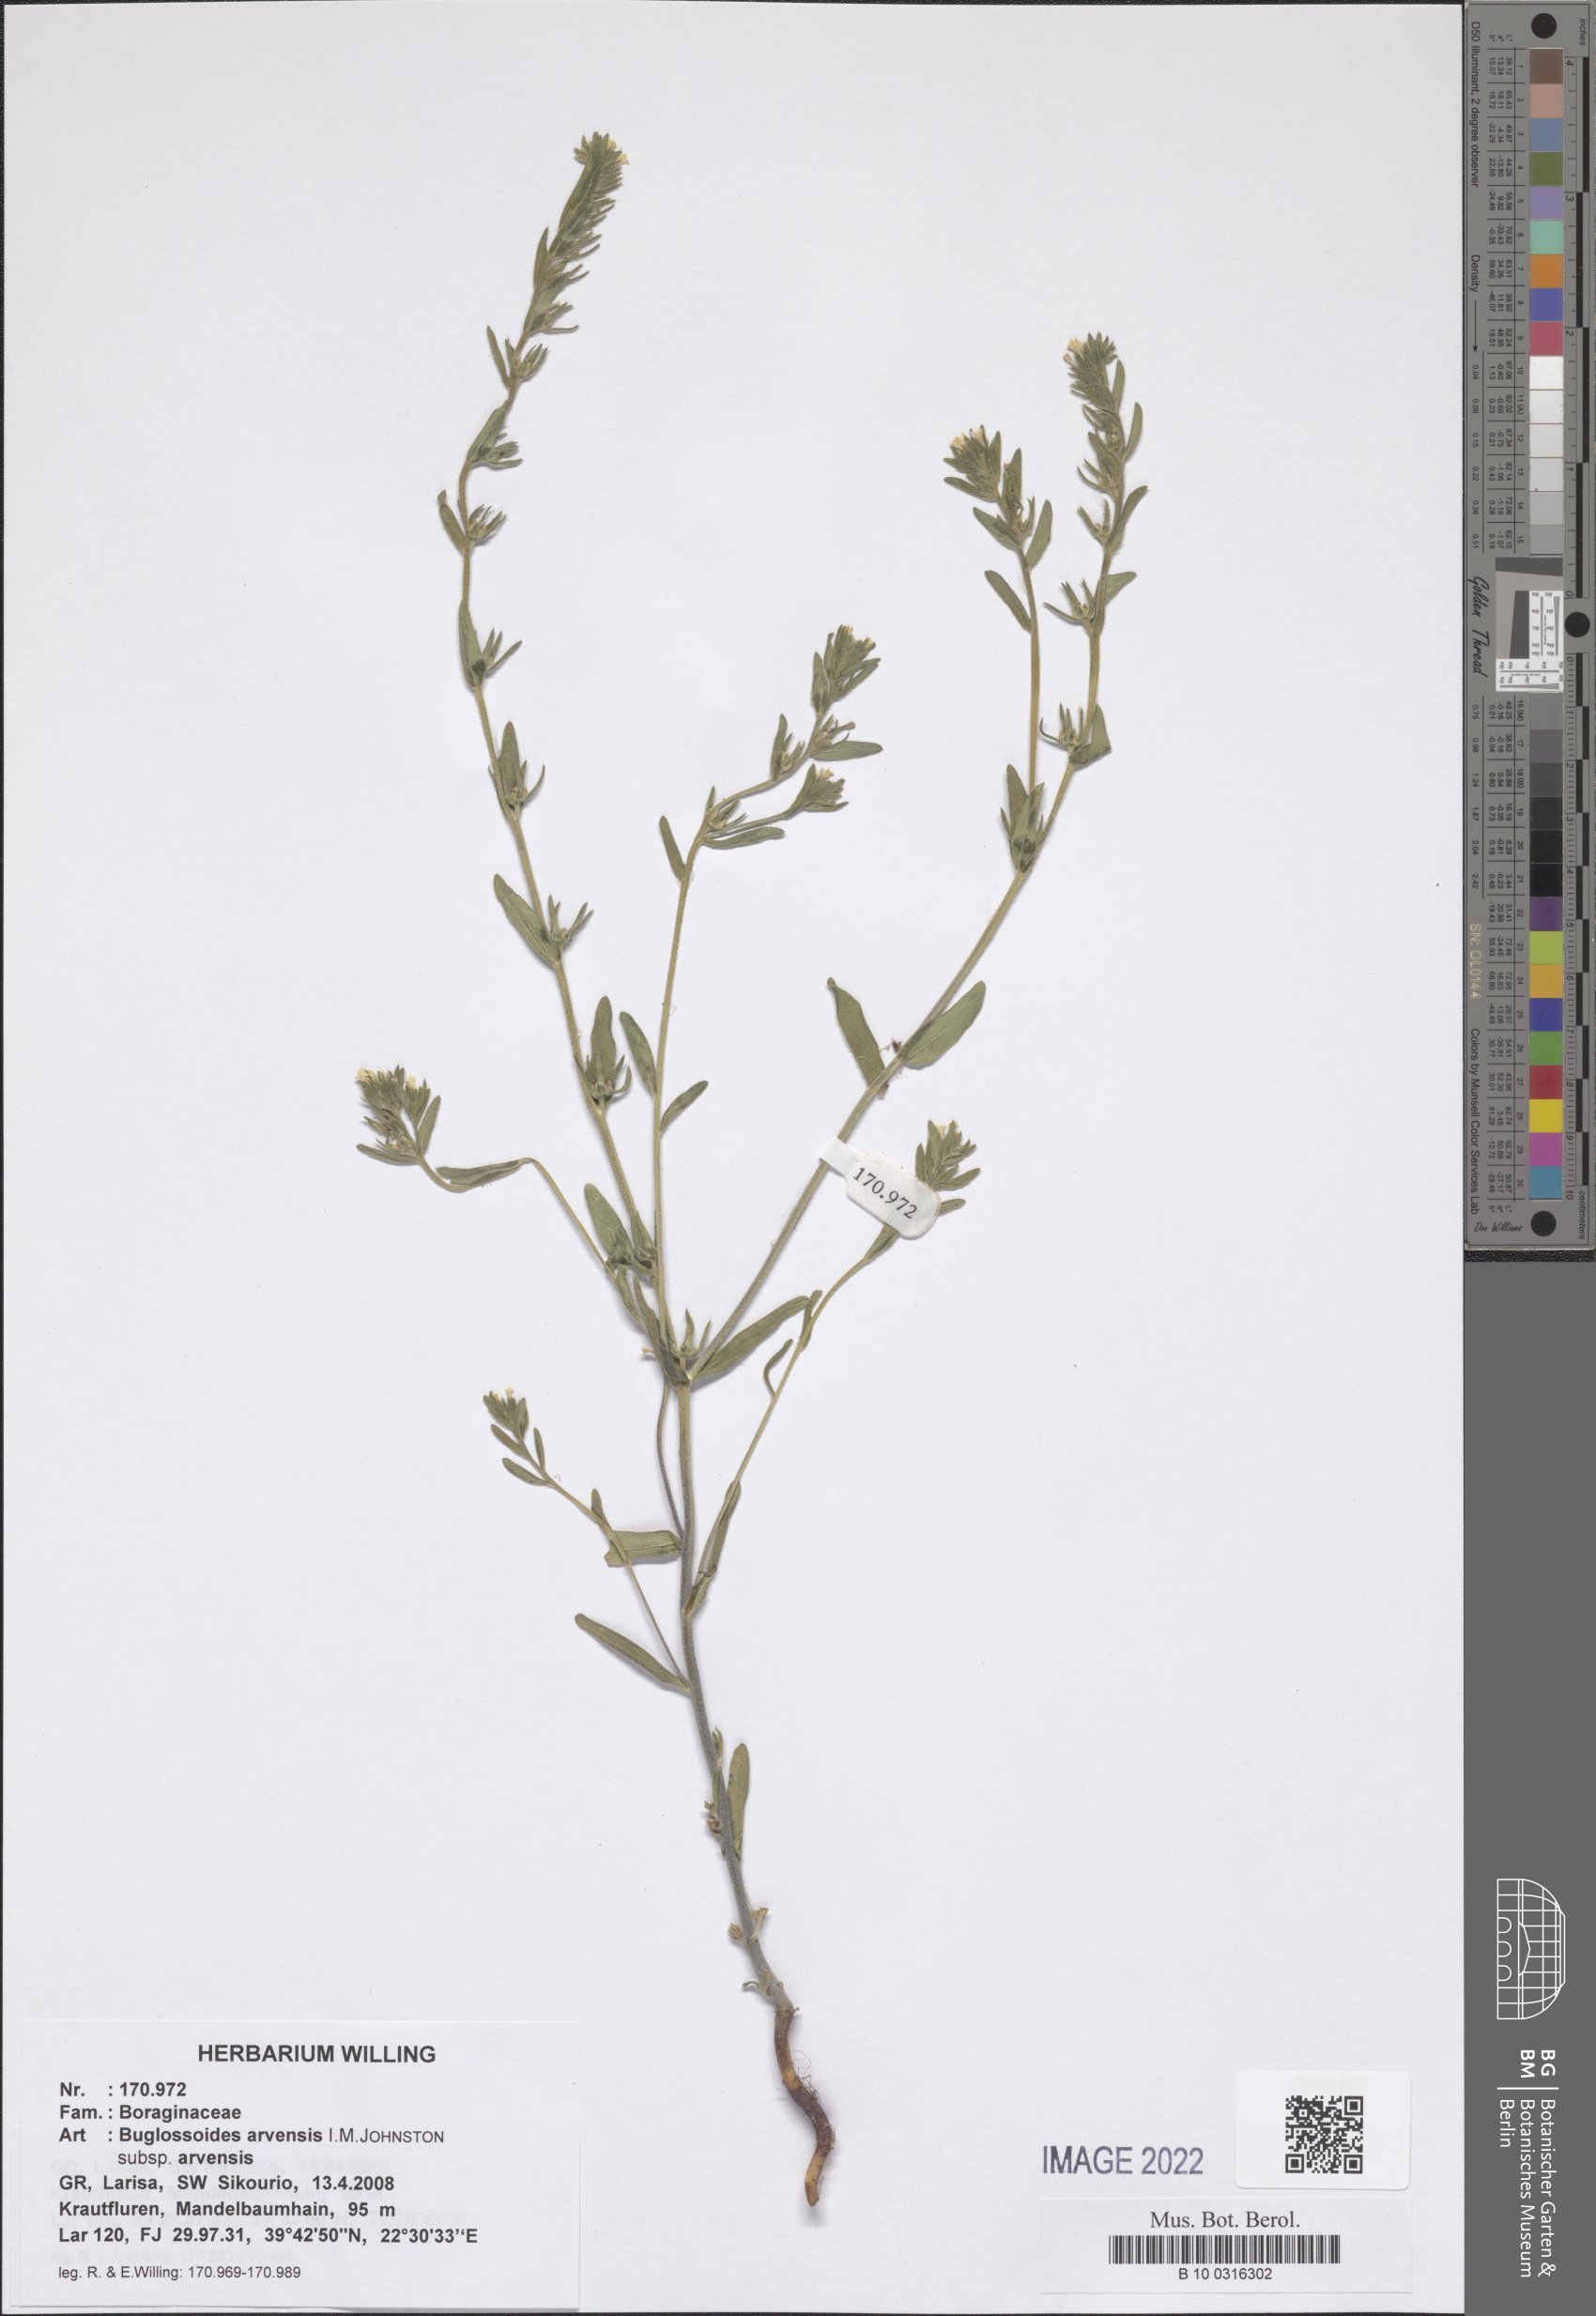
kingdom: Plantae
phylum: Tracheophyta
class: Magnoliopsida
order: Boraginales
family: Boraginaceae
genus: Buglossoides
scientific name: Buglossoides arvensis
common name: Corn gromwell
